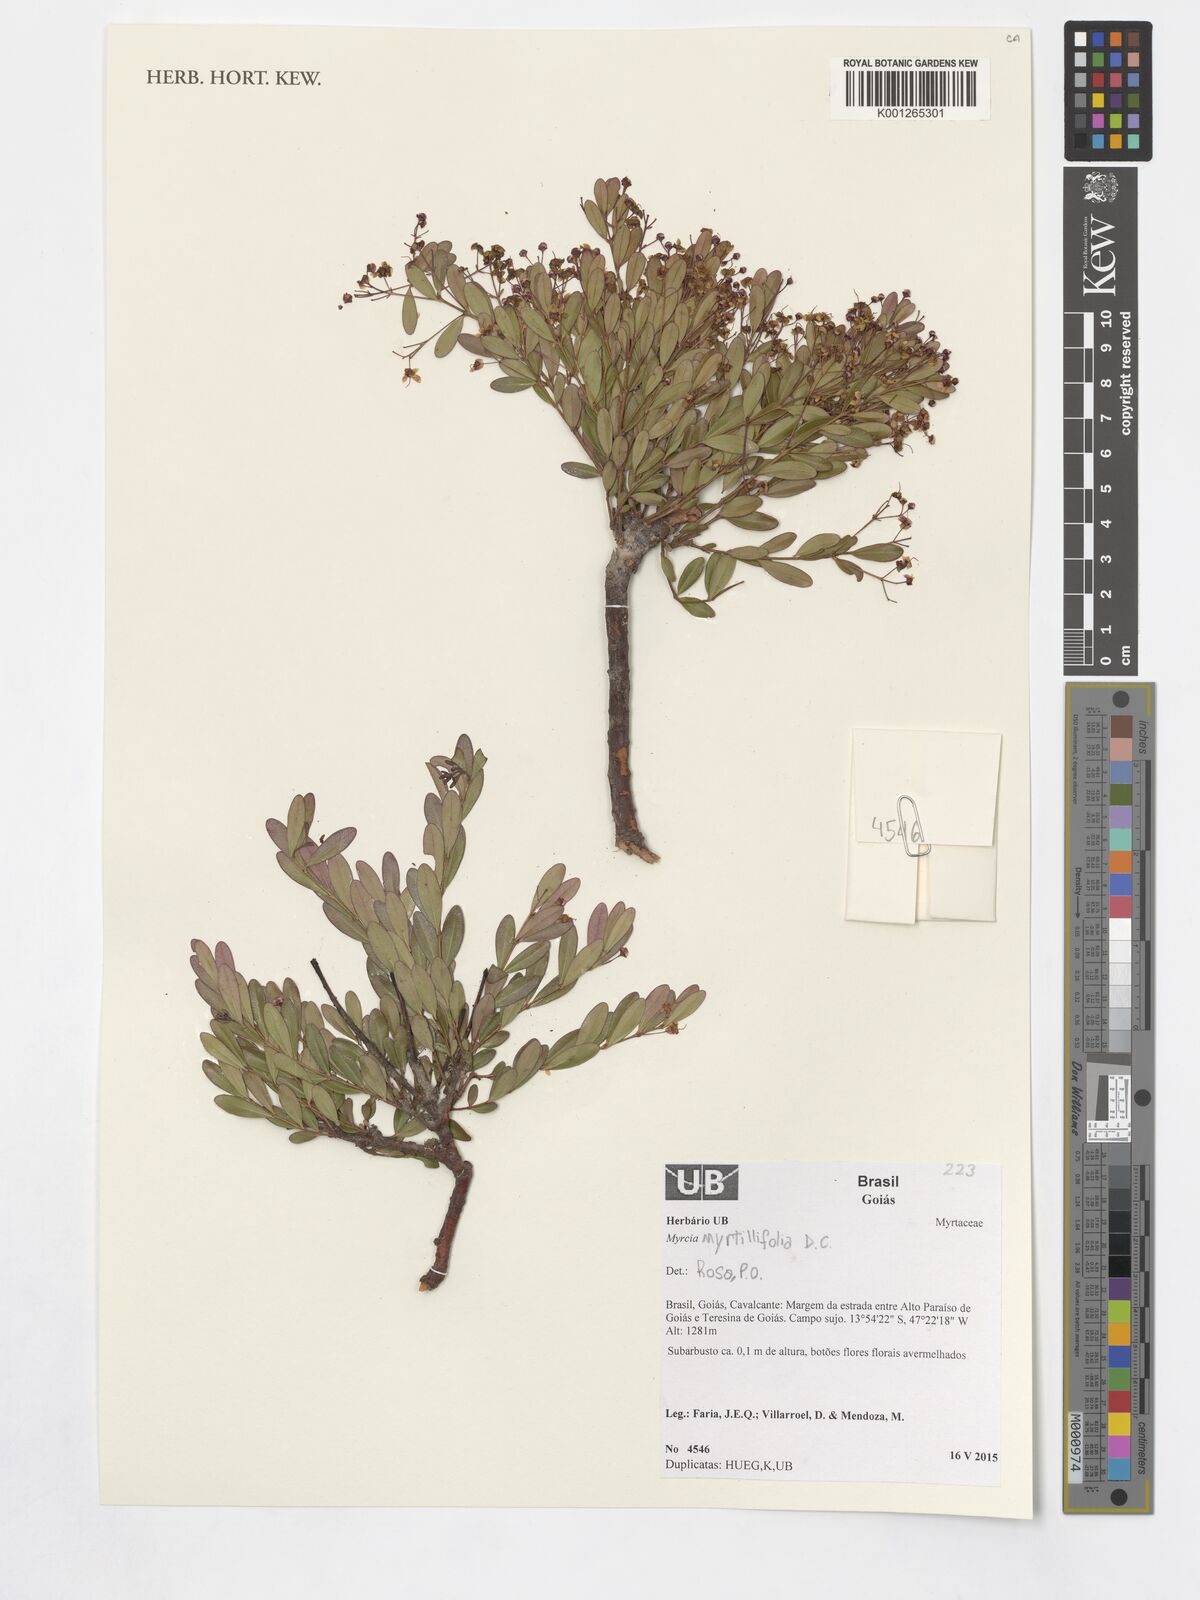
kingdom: Plantae
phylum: Tracheophyta
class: Magnoliopsida
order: Myrtales
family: Myrtaceae
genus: Myrcia
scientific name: Myrcia guianensis
